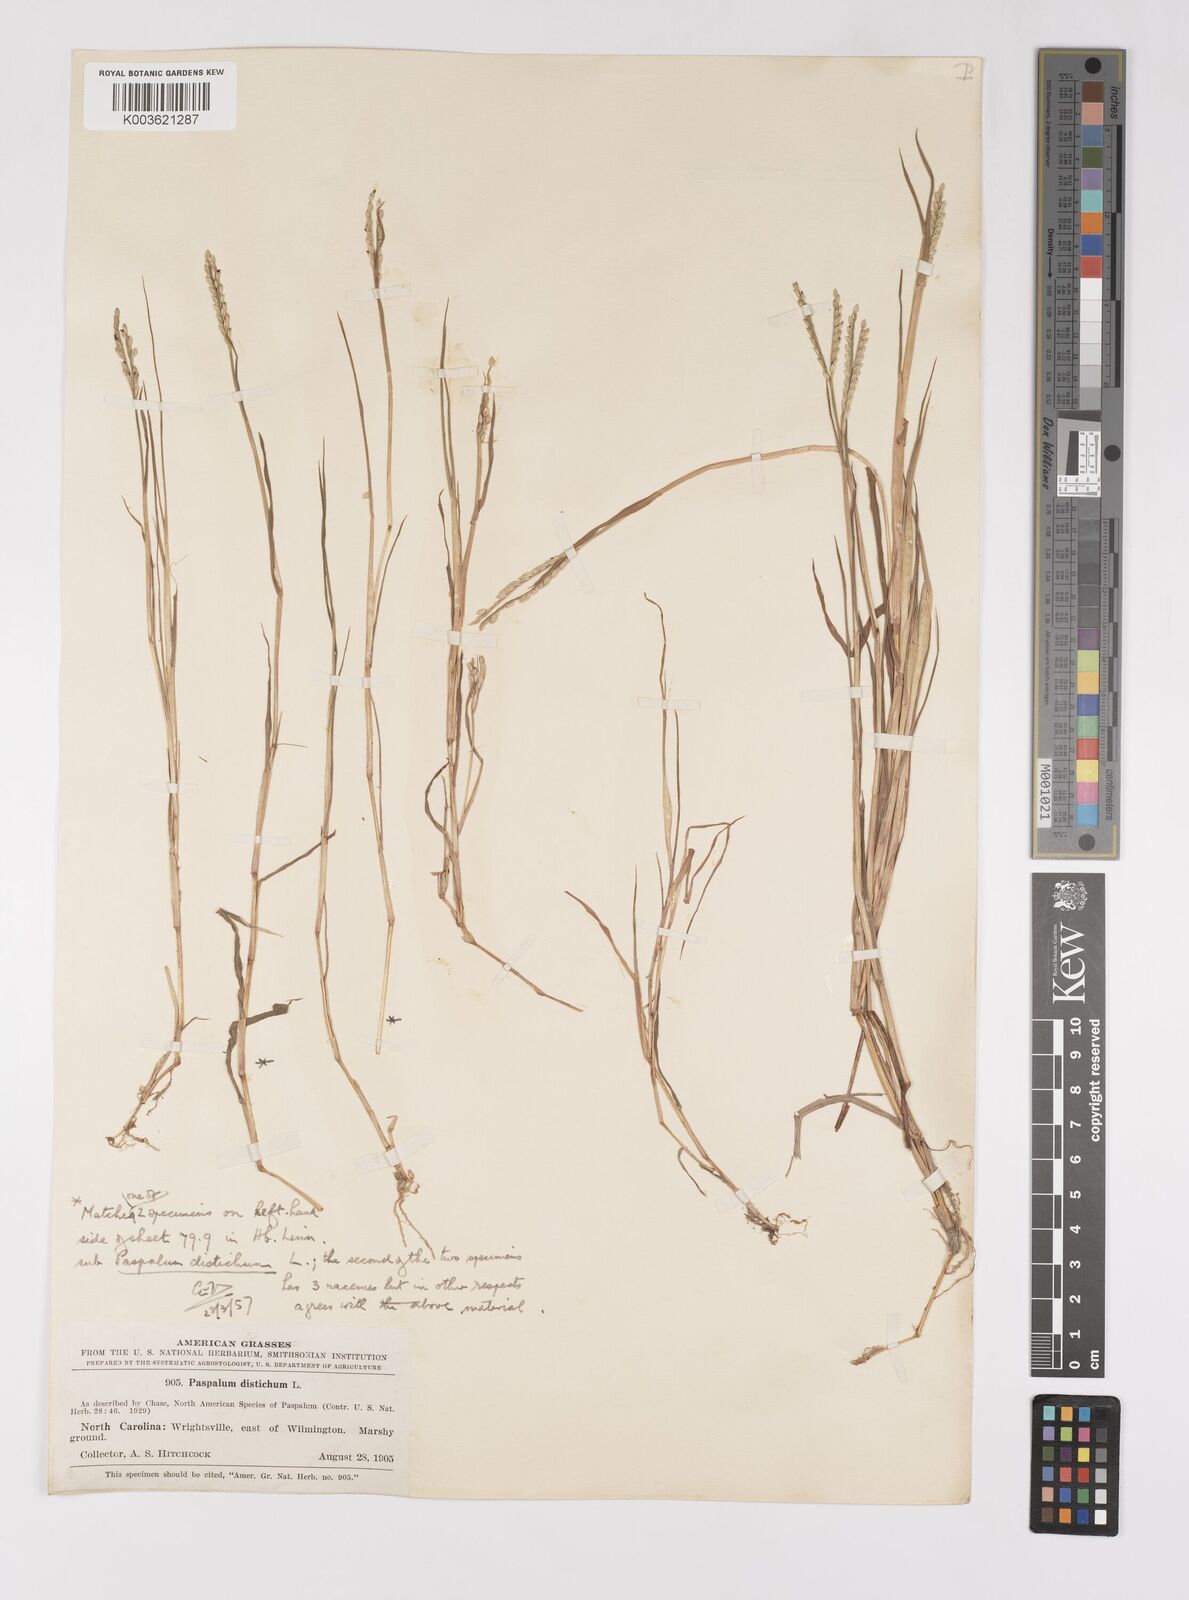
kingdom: Plantae
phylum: Tracheophyta
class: Liliopsida
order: Poales
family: Poaceae
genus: Paspalum
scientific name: Paspalum distichum
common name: Knotgrass
